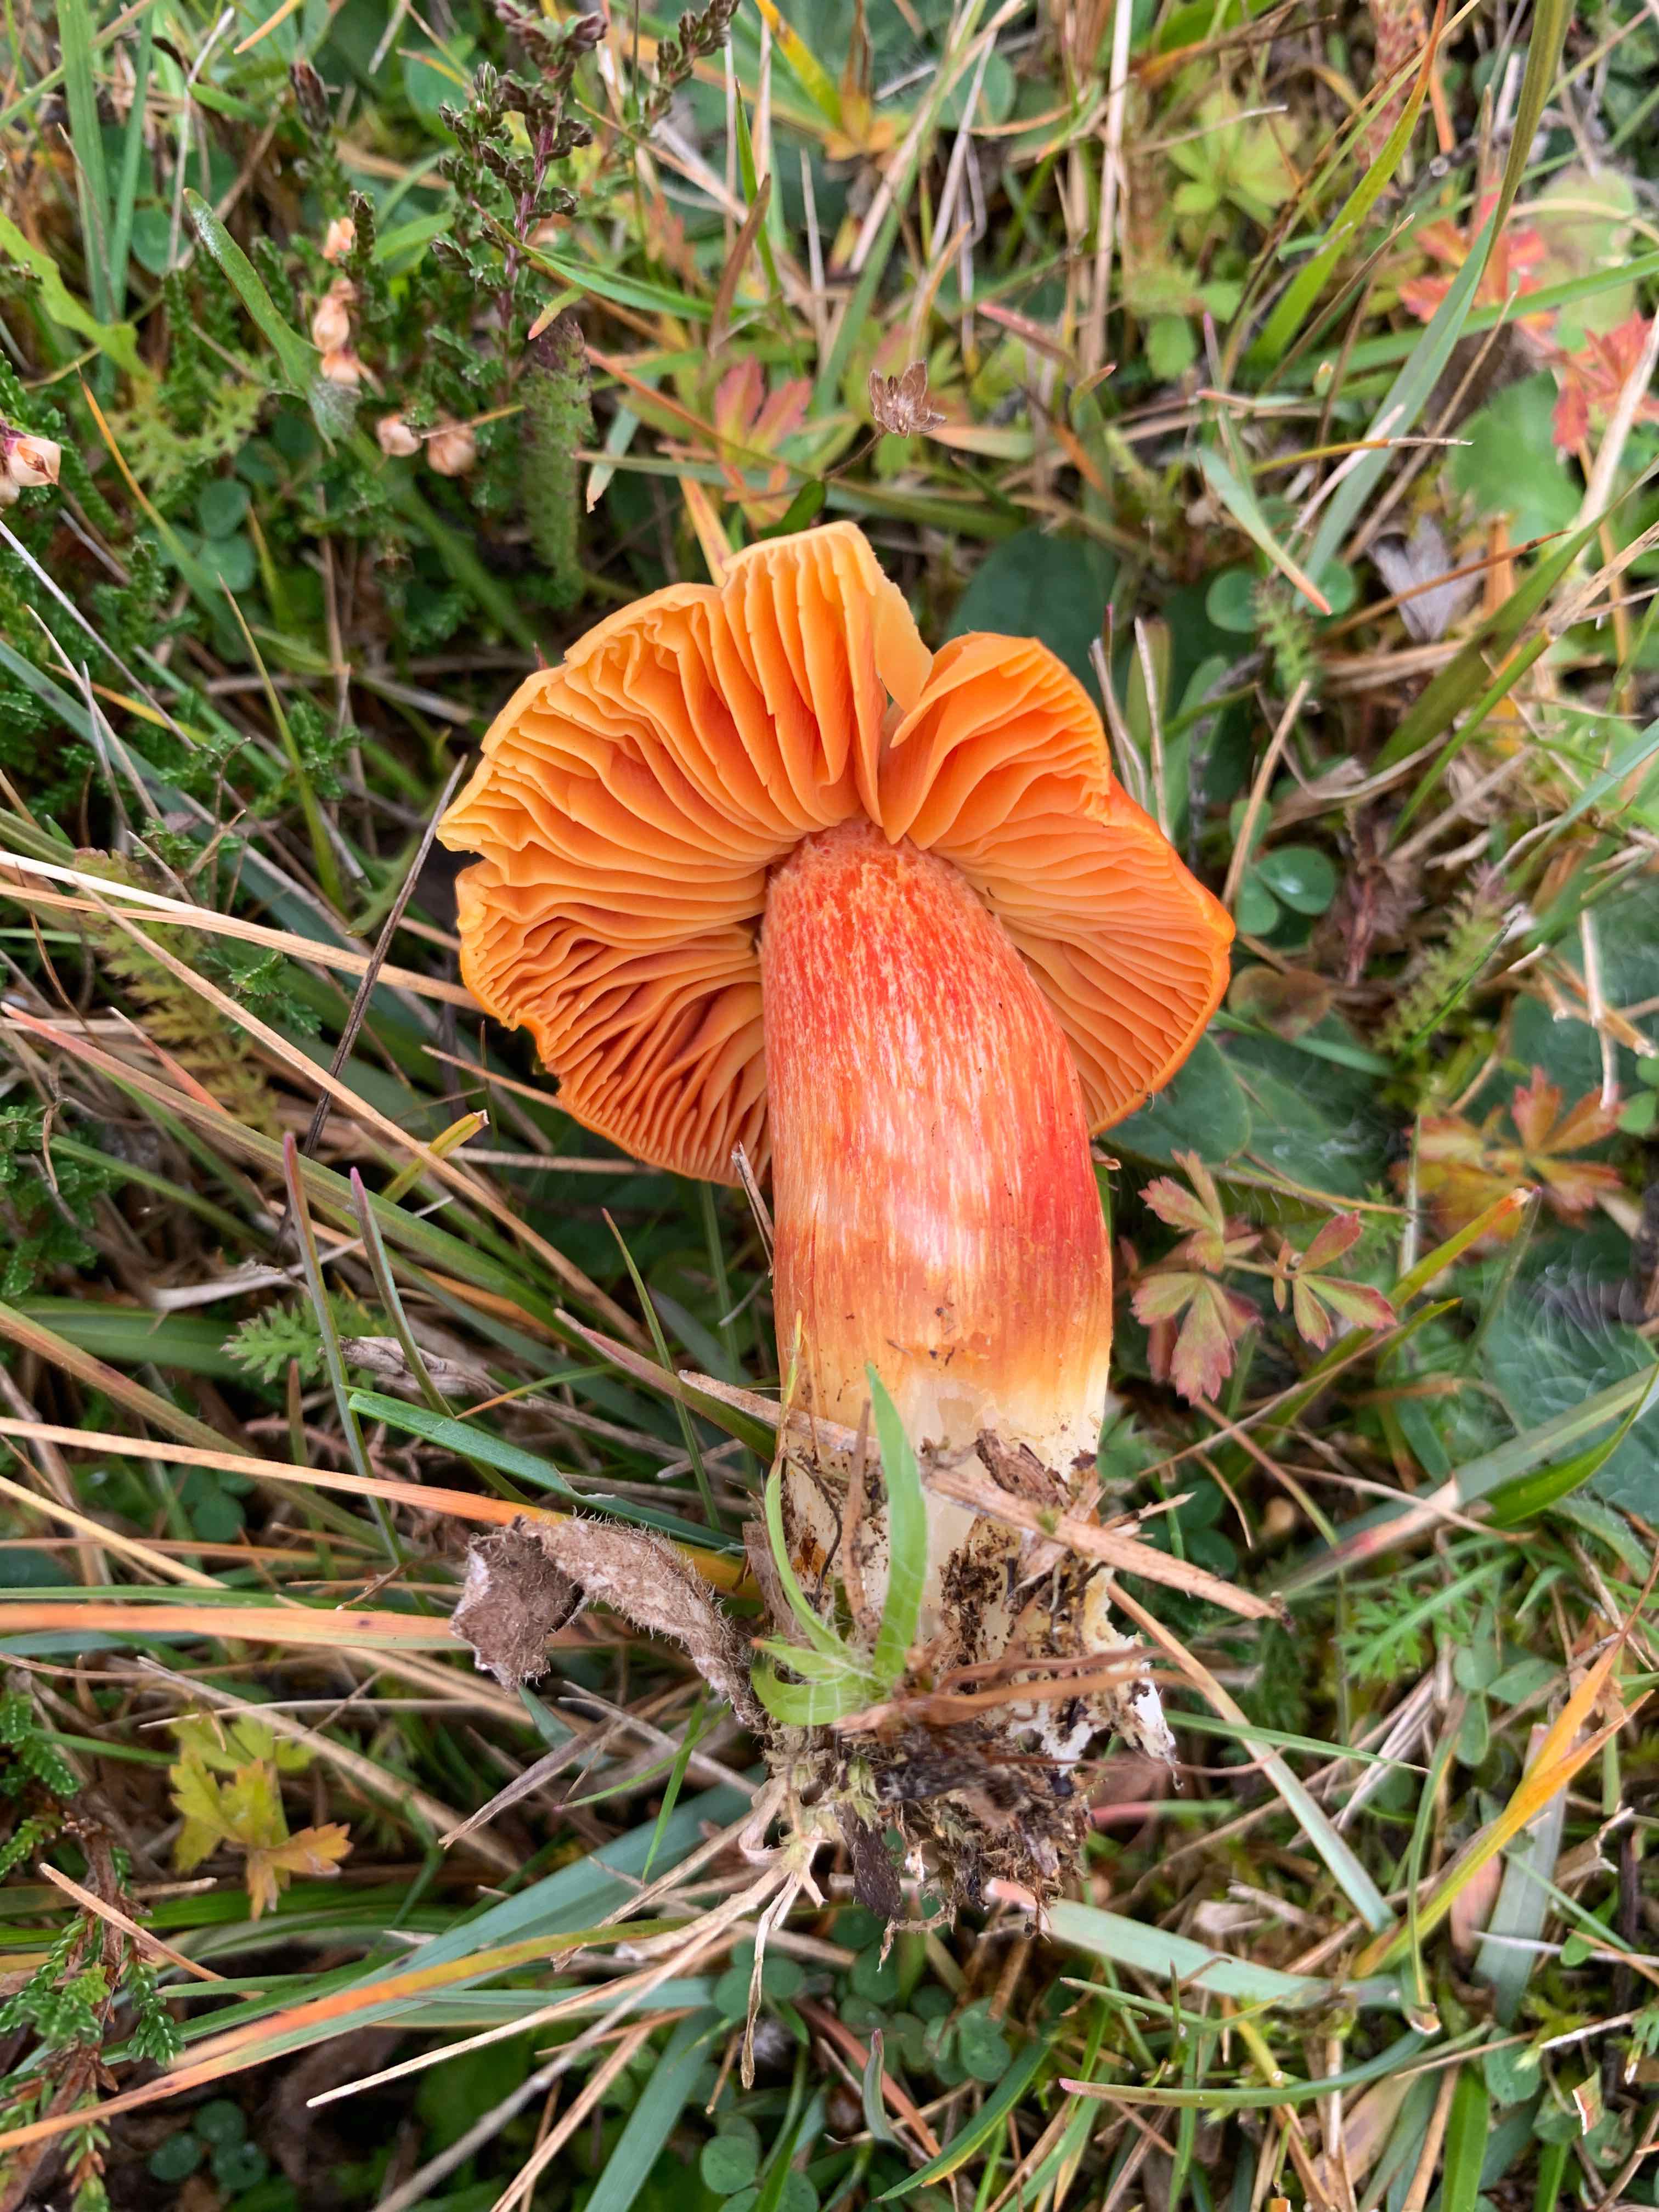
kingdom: Fungi
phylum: Basidiomycota
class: Agaricomycetes
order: Agaricales
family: Hygrophoraceae
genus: Hygrocybe
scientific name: Hygrocybe punicea
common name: skarlagen-vokshat
